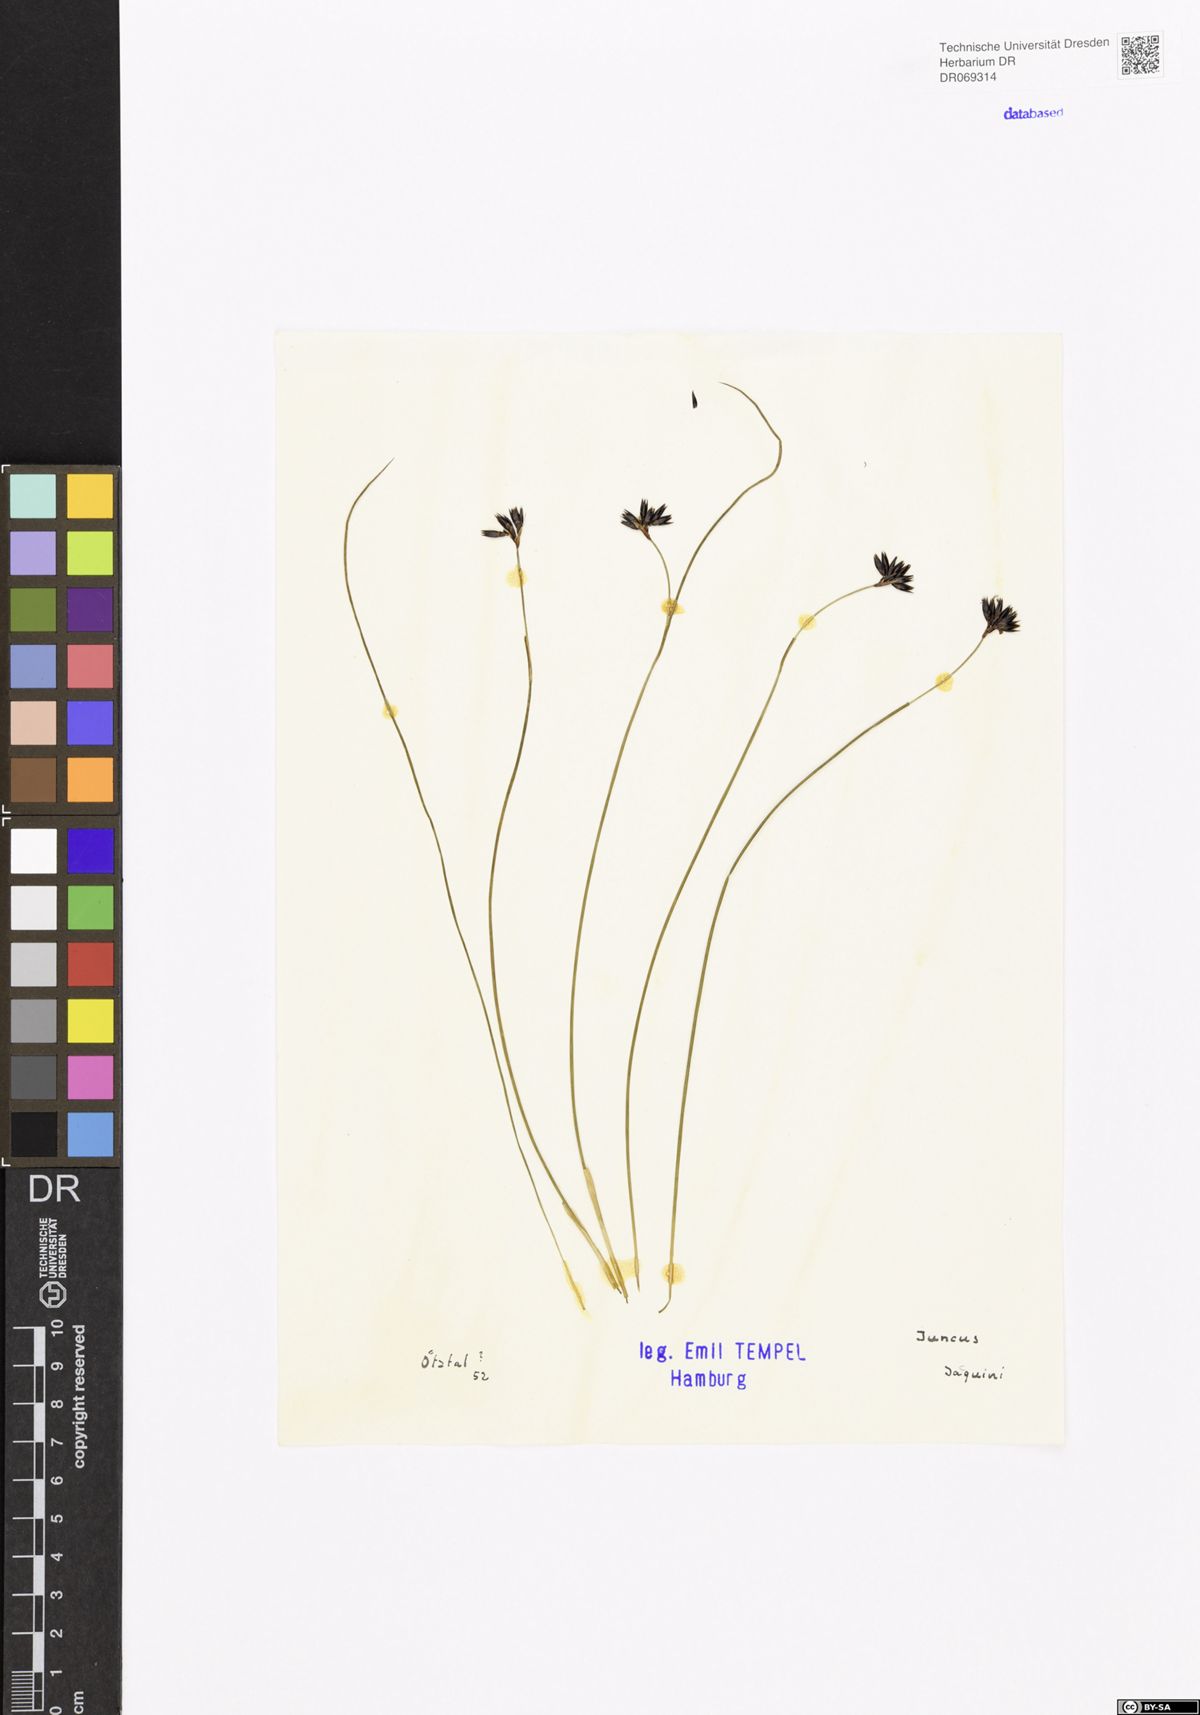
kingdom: Plantae
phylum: Tracheophyta
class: Liliopsida
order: Poales
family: Juncaceae
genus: Juncus
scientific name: Juncus jacquinii
